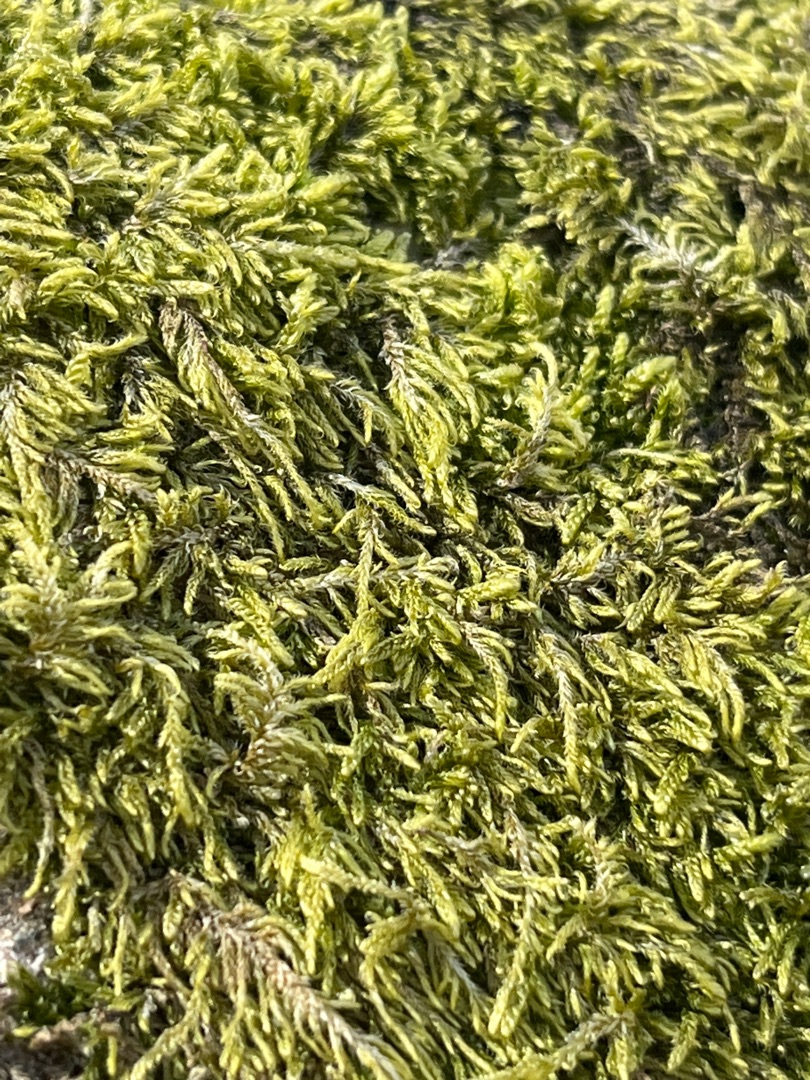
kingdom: Plantae
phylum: Bryophyta
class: Bryopsida
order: Hypnales
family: Hypnaceae
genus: Hypnum
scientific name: Hypnum
